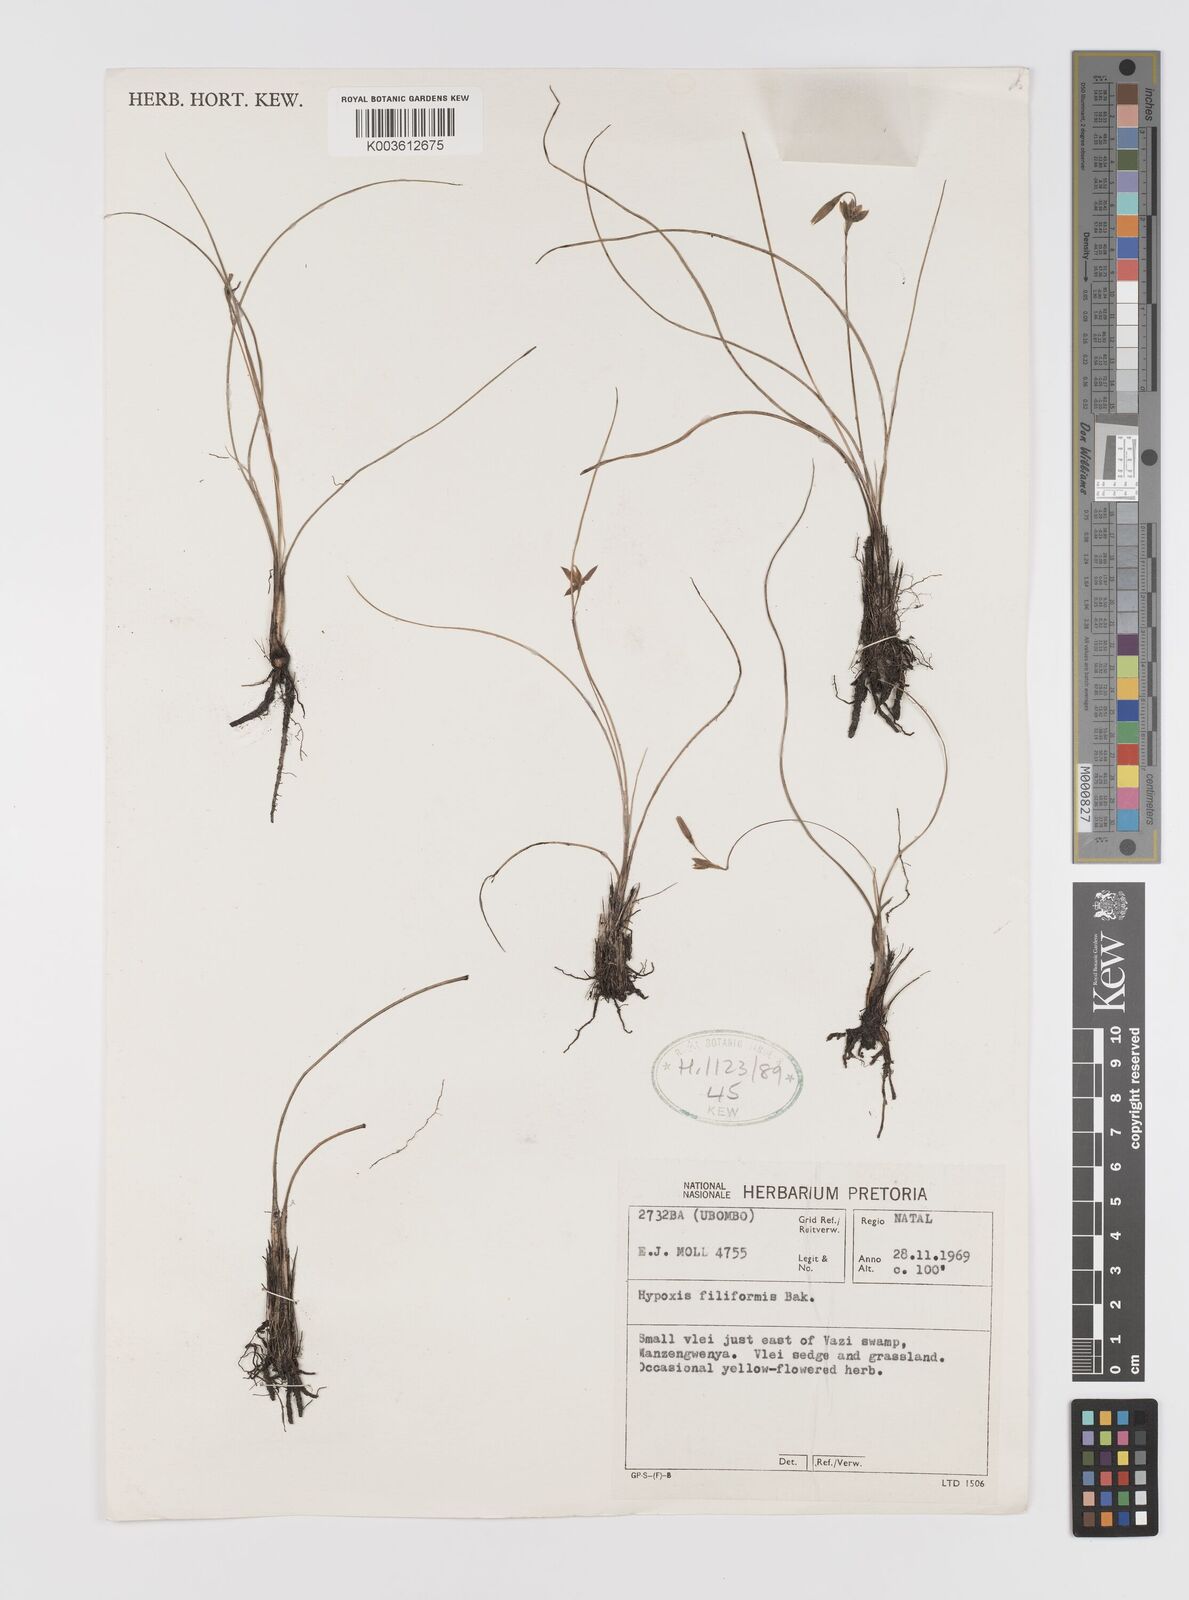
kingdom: Plantae
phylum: Tracheophyta
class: Liliopsida
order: Asparagales
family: Hypoxidaceae
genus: Hypoxis
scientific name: Hypoxis filiformis
